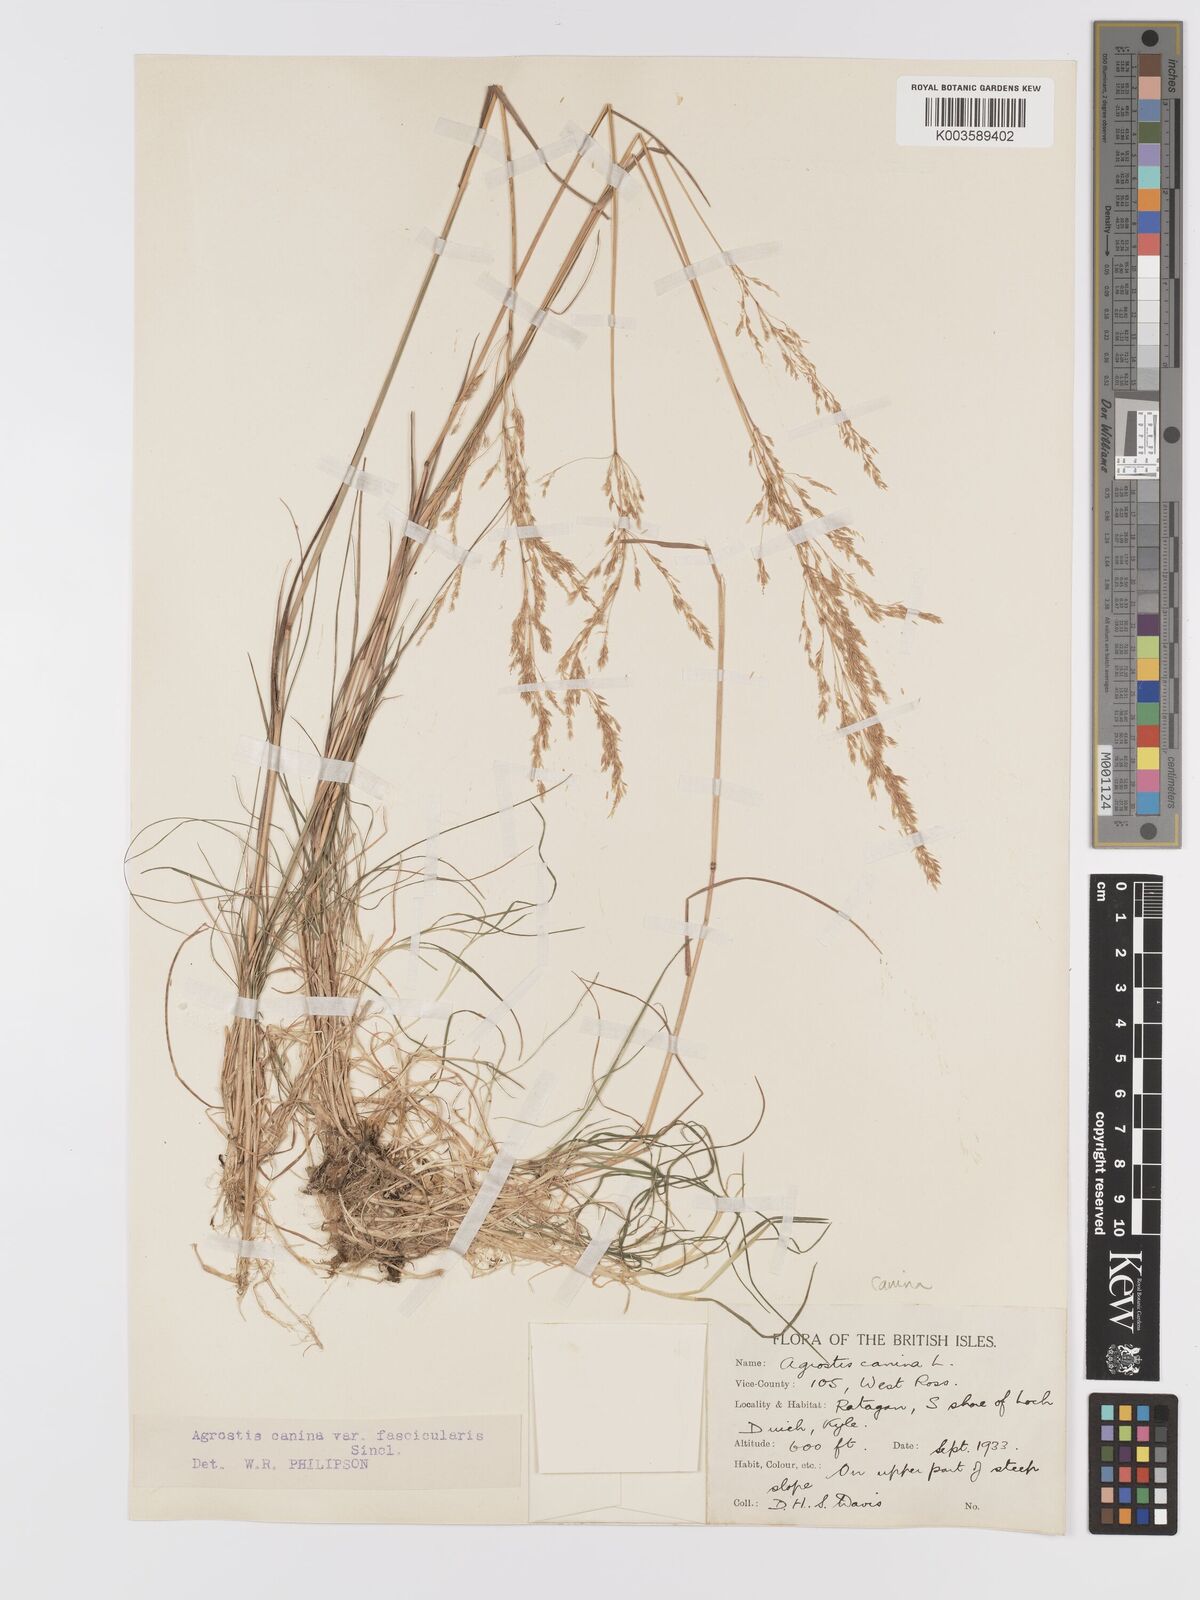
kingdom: Plantae
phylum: Tracheophyta
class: Liliopsida
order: Poales
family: Poaceae
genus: Agrostis
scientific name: Agrostis canina
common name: Velvet bent
